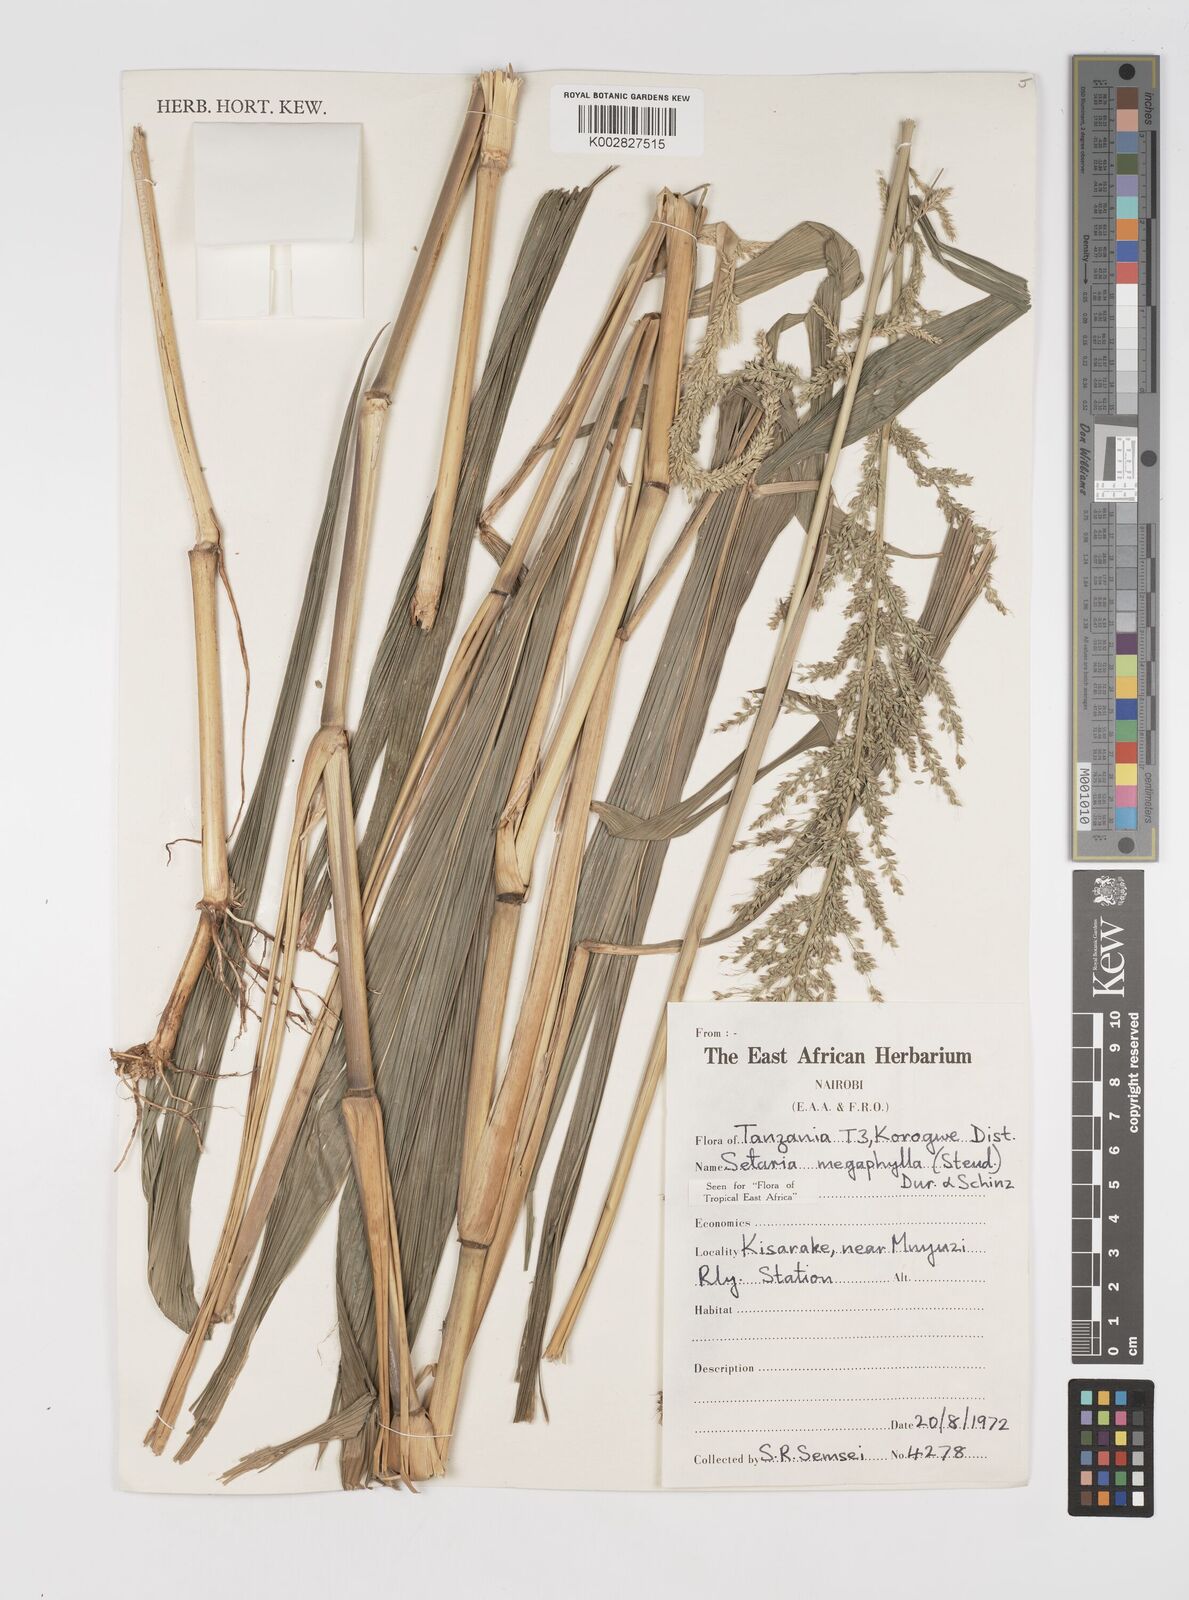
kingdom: Plantae
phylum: Tracheophyta
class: Liliopsida
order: Poales
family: Poaceae
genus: Setaria
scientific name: Setaria megaphylla
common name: Bigleaf bristlegrass
